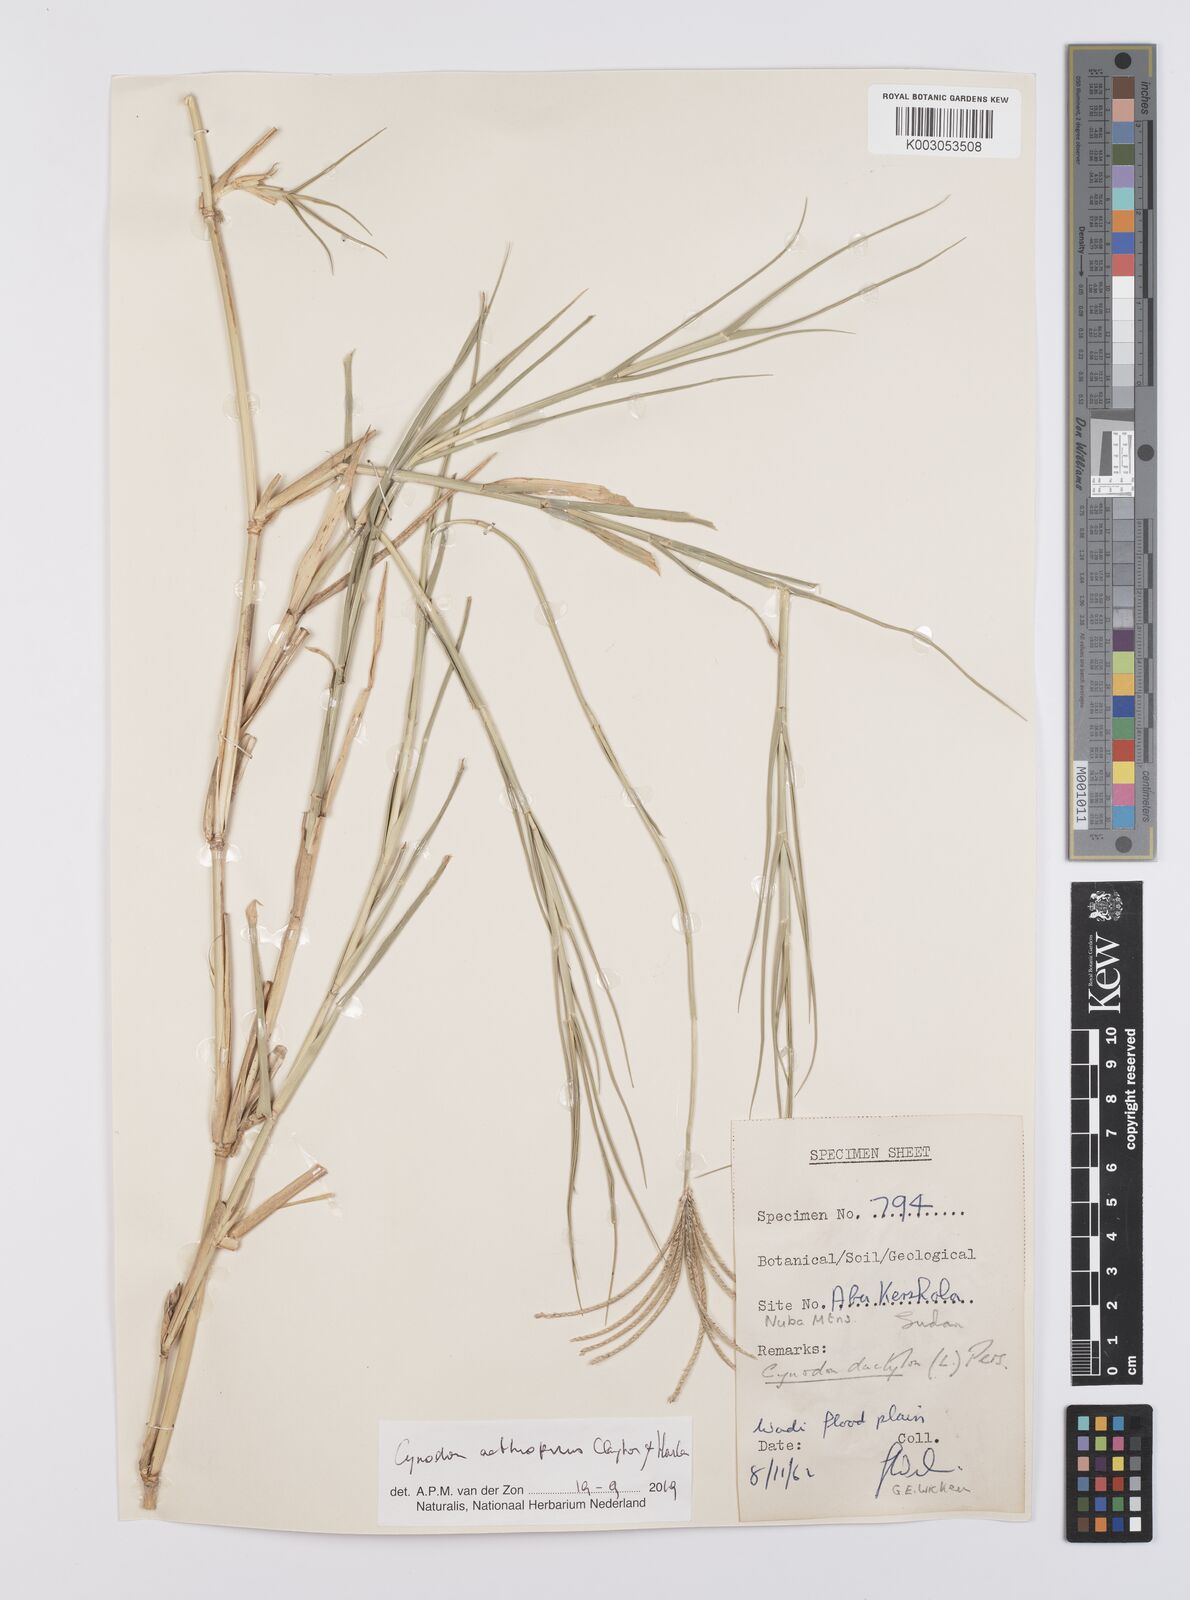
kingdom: Plantae
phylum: Tracheophyta
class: Liliopsida
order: Poales
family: Poaceae
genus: Cynodon
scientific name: Cynodon aethiopicus
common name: Ethiopian dogstooth grass
